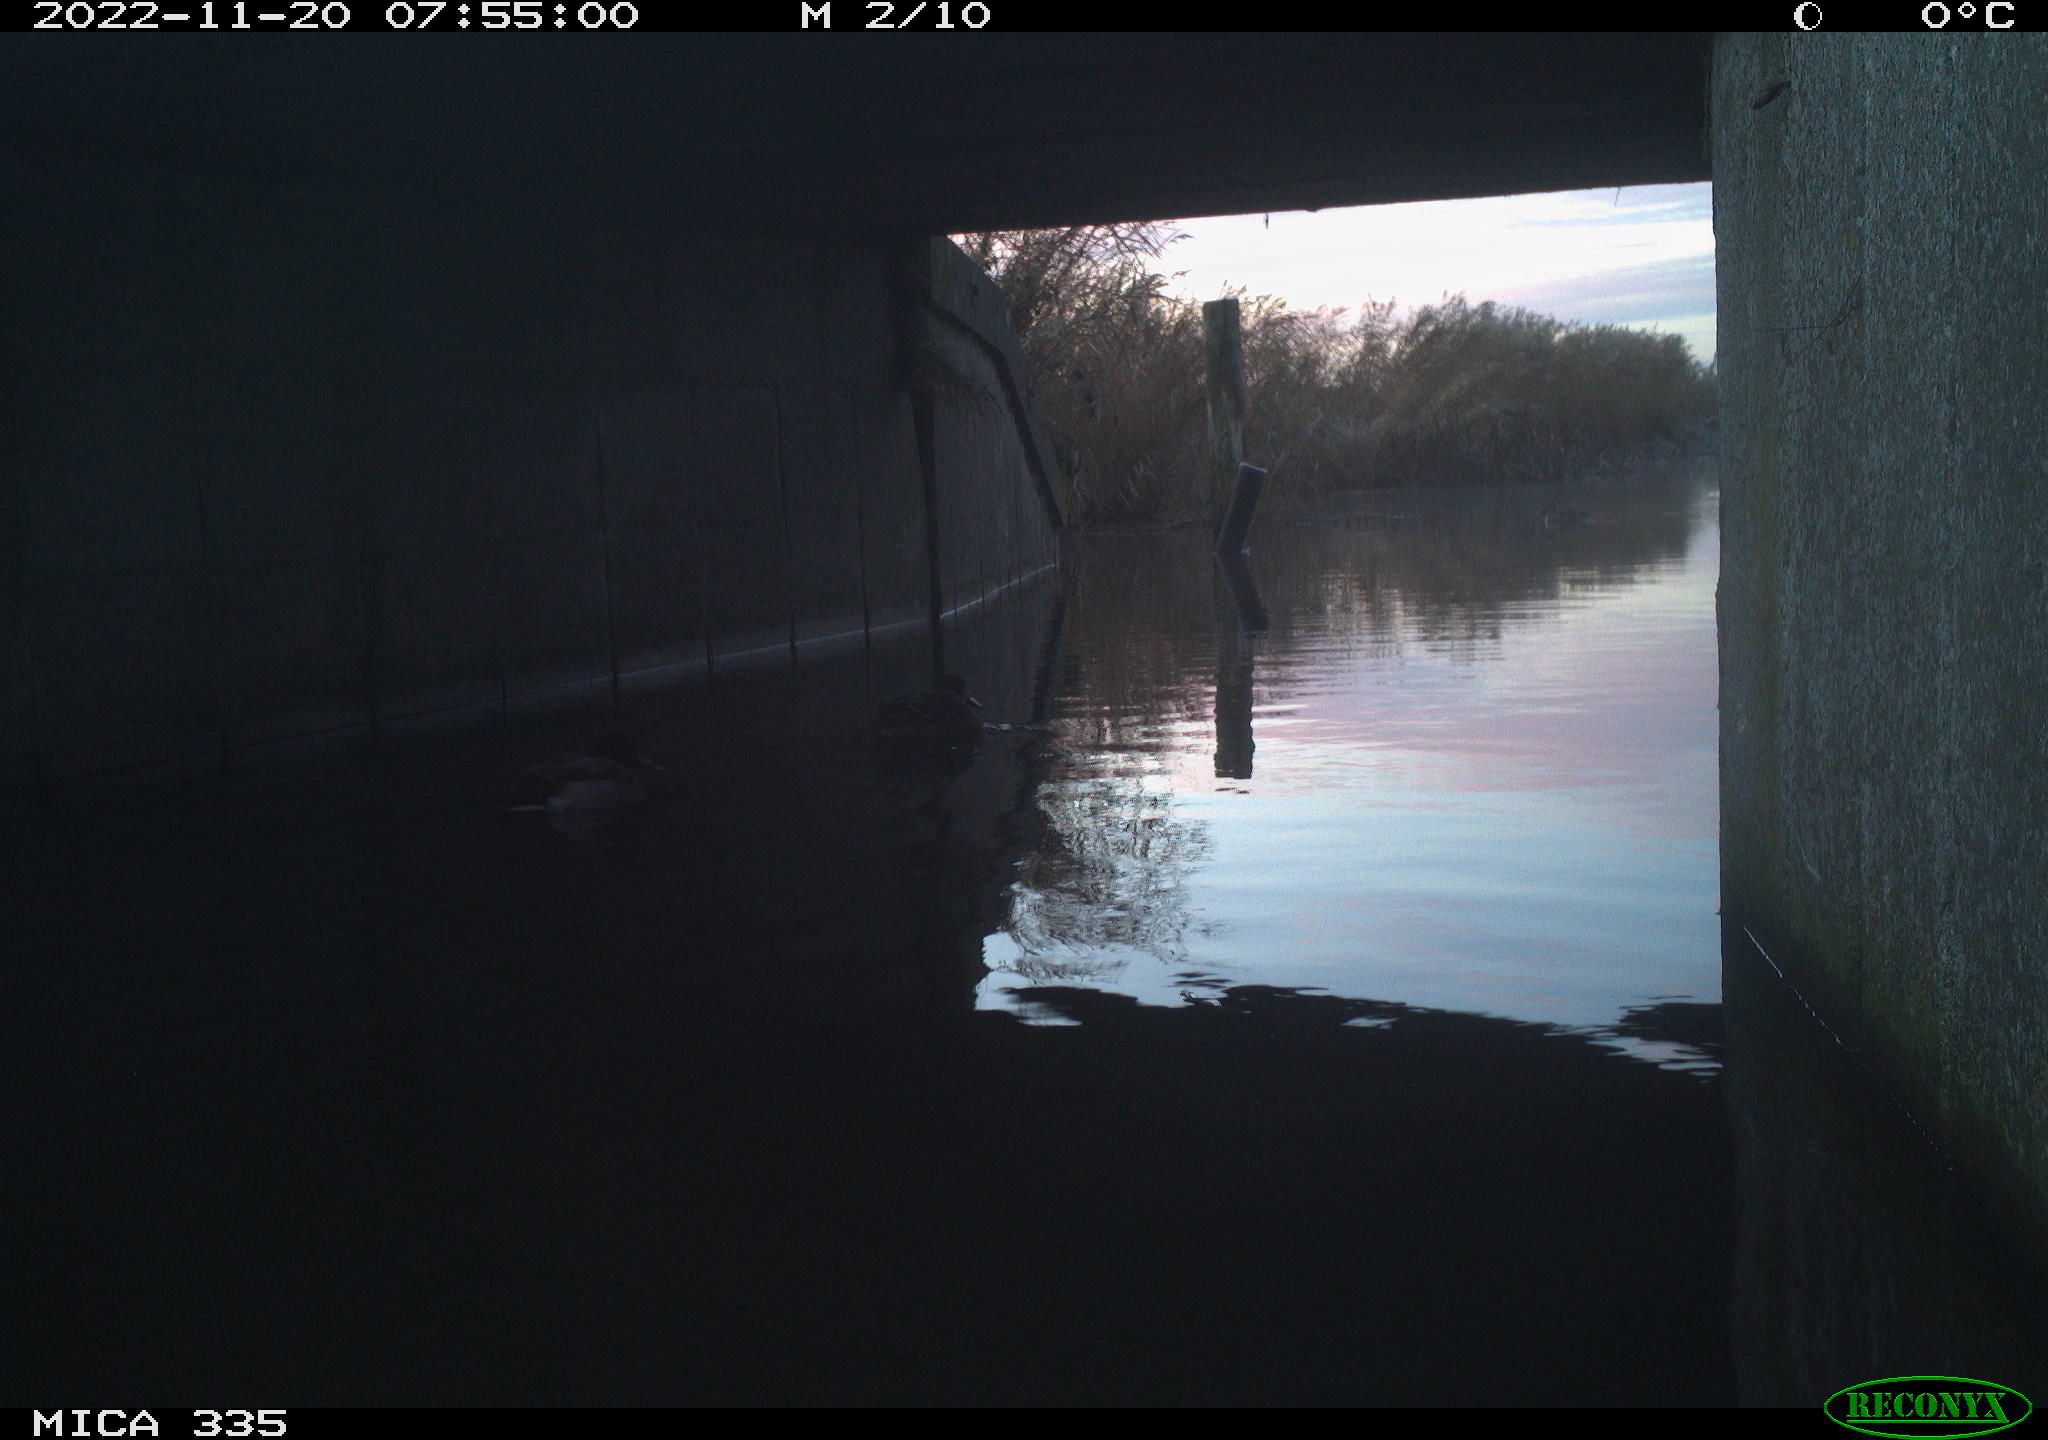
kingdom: Animalia
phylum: Chordata
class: Aves
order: Anseriformes
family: Anatidae
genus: Anas
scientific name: Anas
